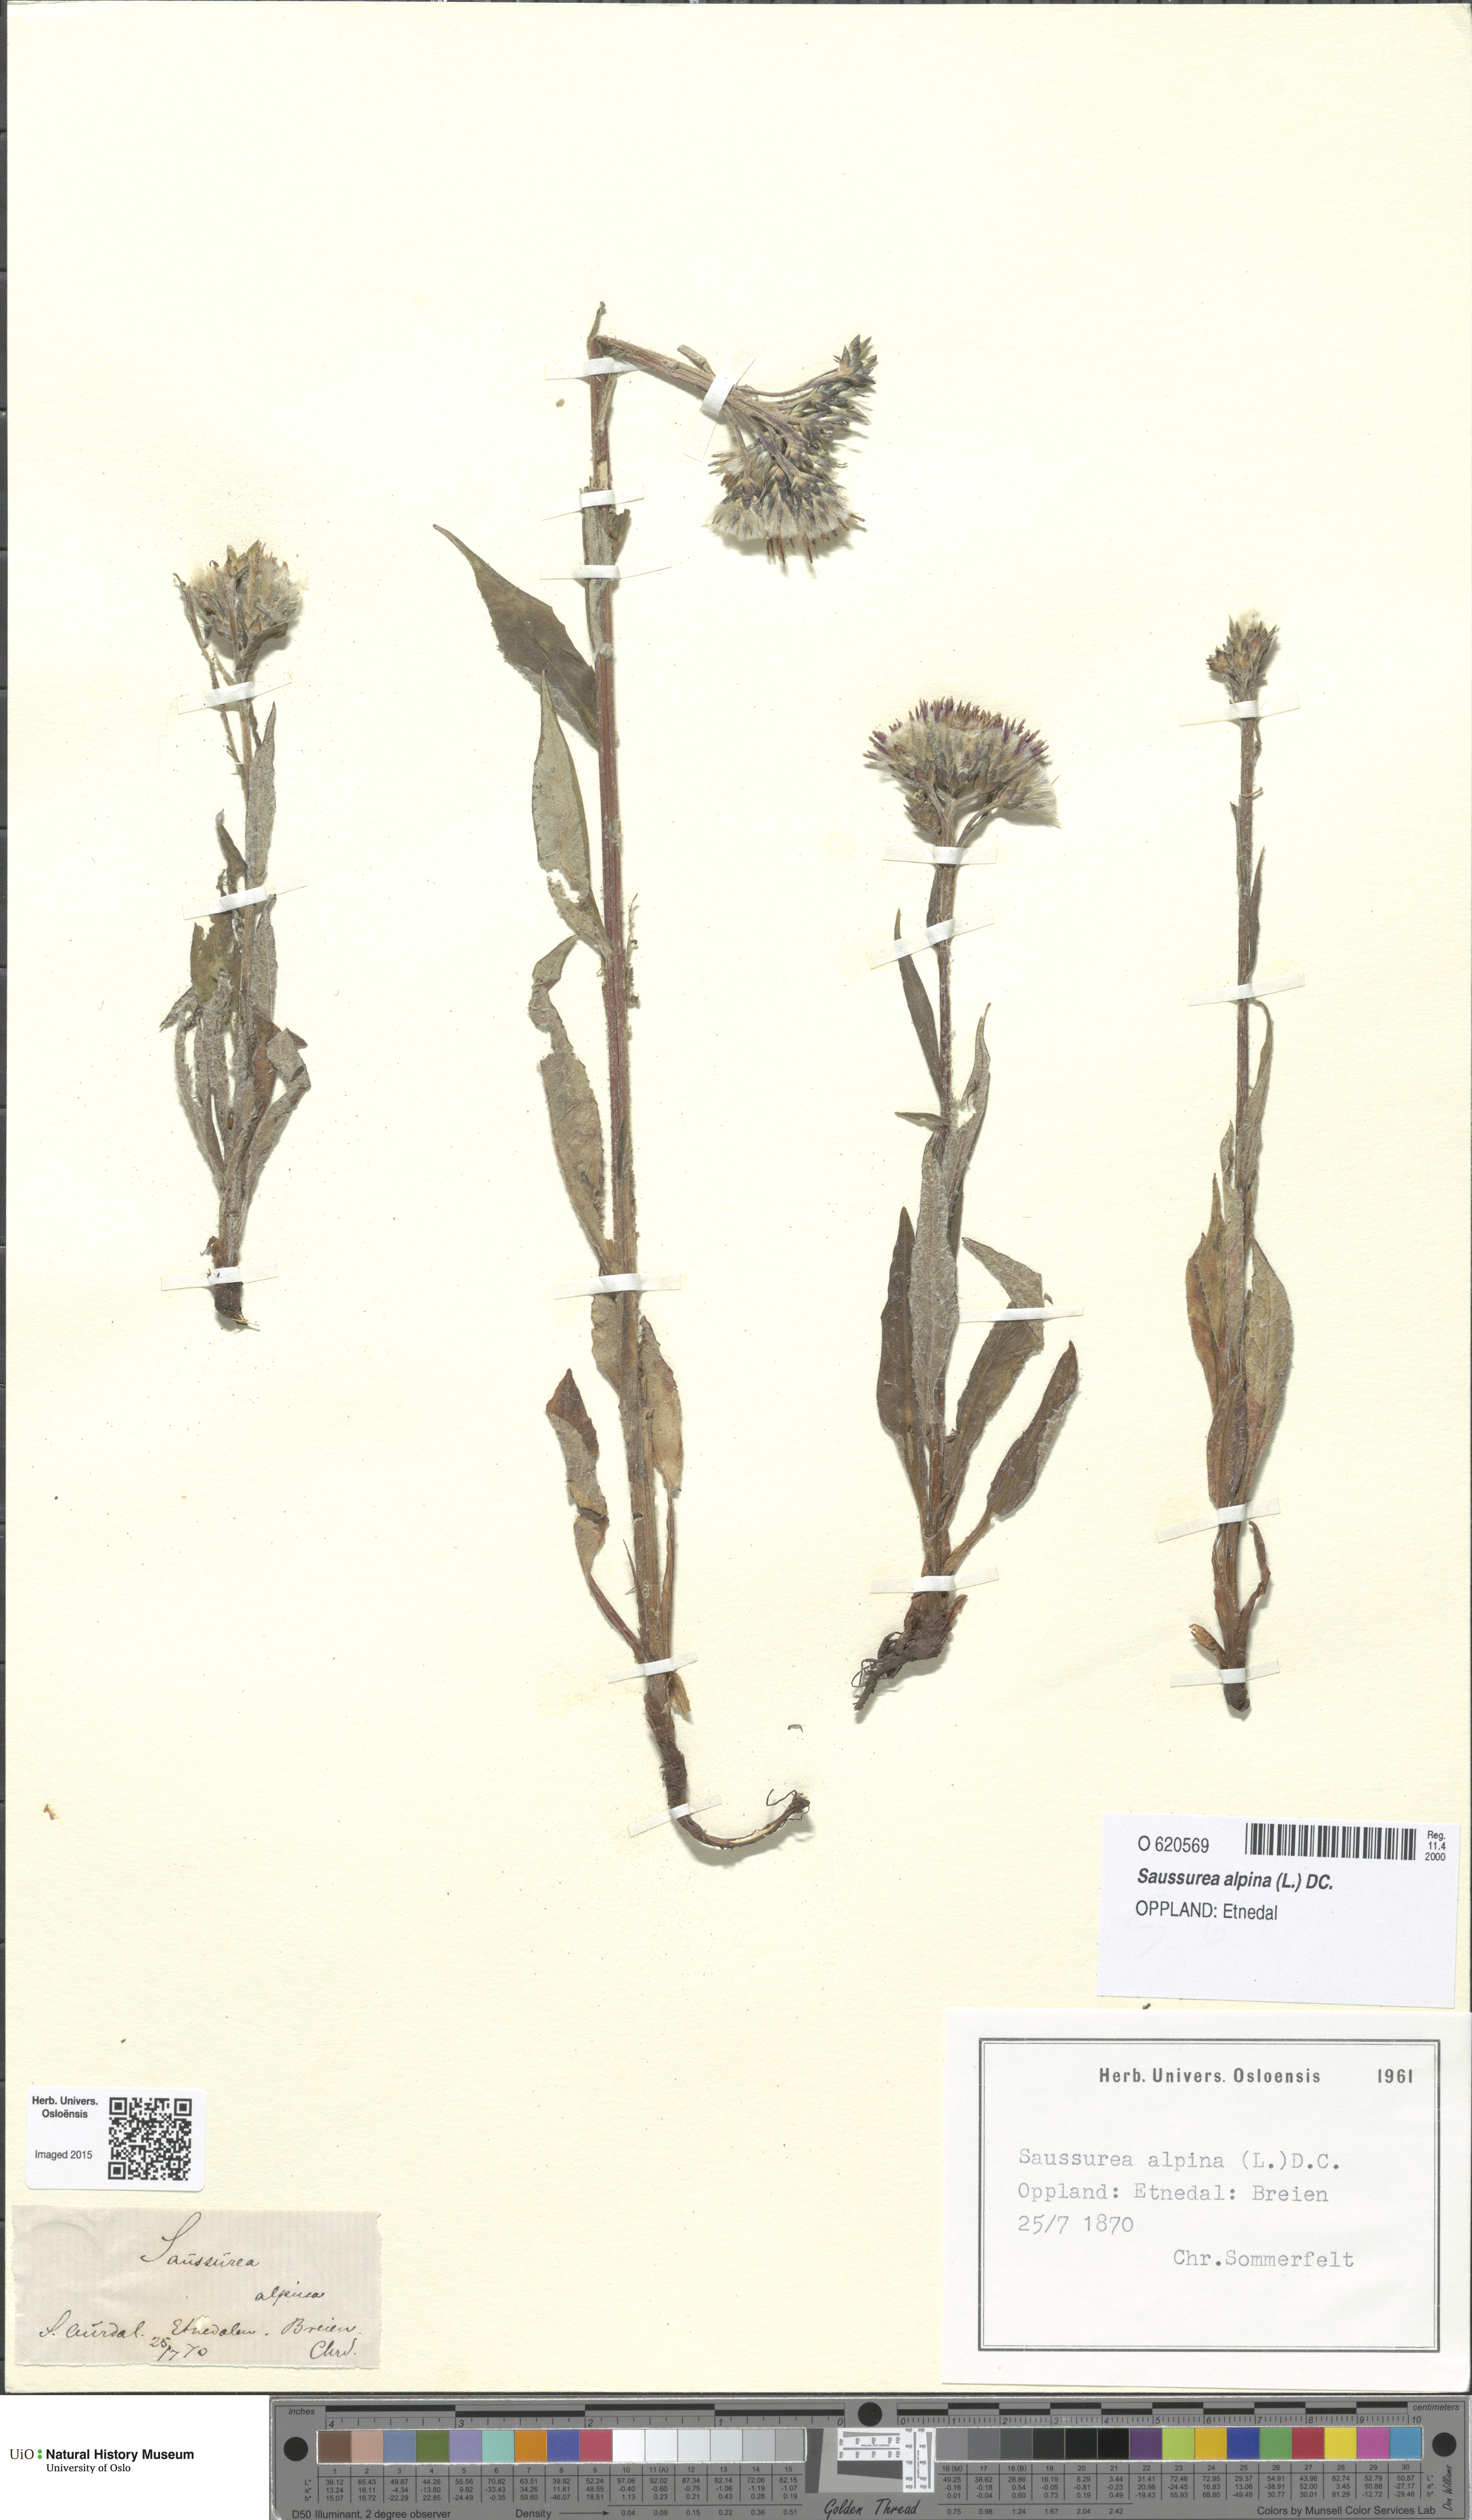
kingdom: Plantae
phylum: Tracheophyta
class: Magnoliopsida
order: Asterales
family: Asteraceae
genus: Saussurea
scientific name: Saussurea alpina
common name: Alpine saw-wort
